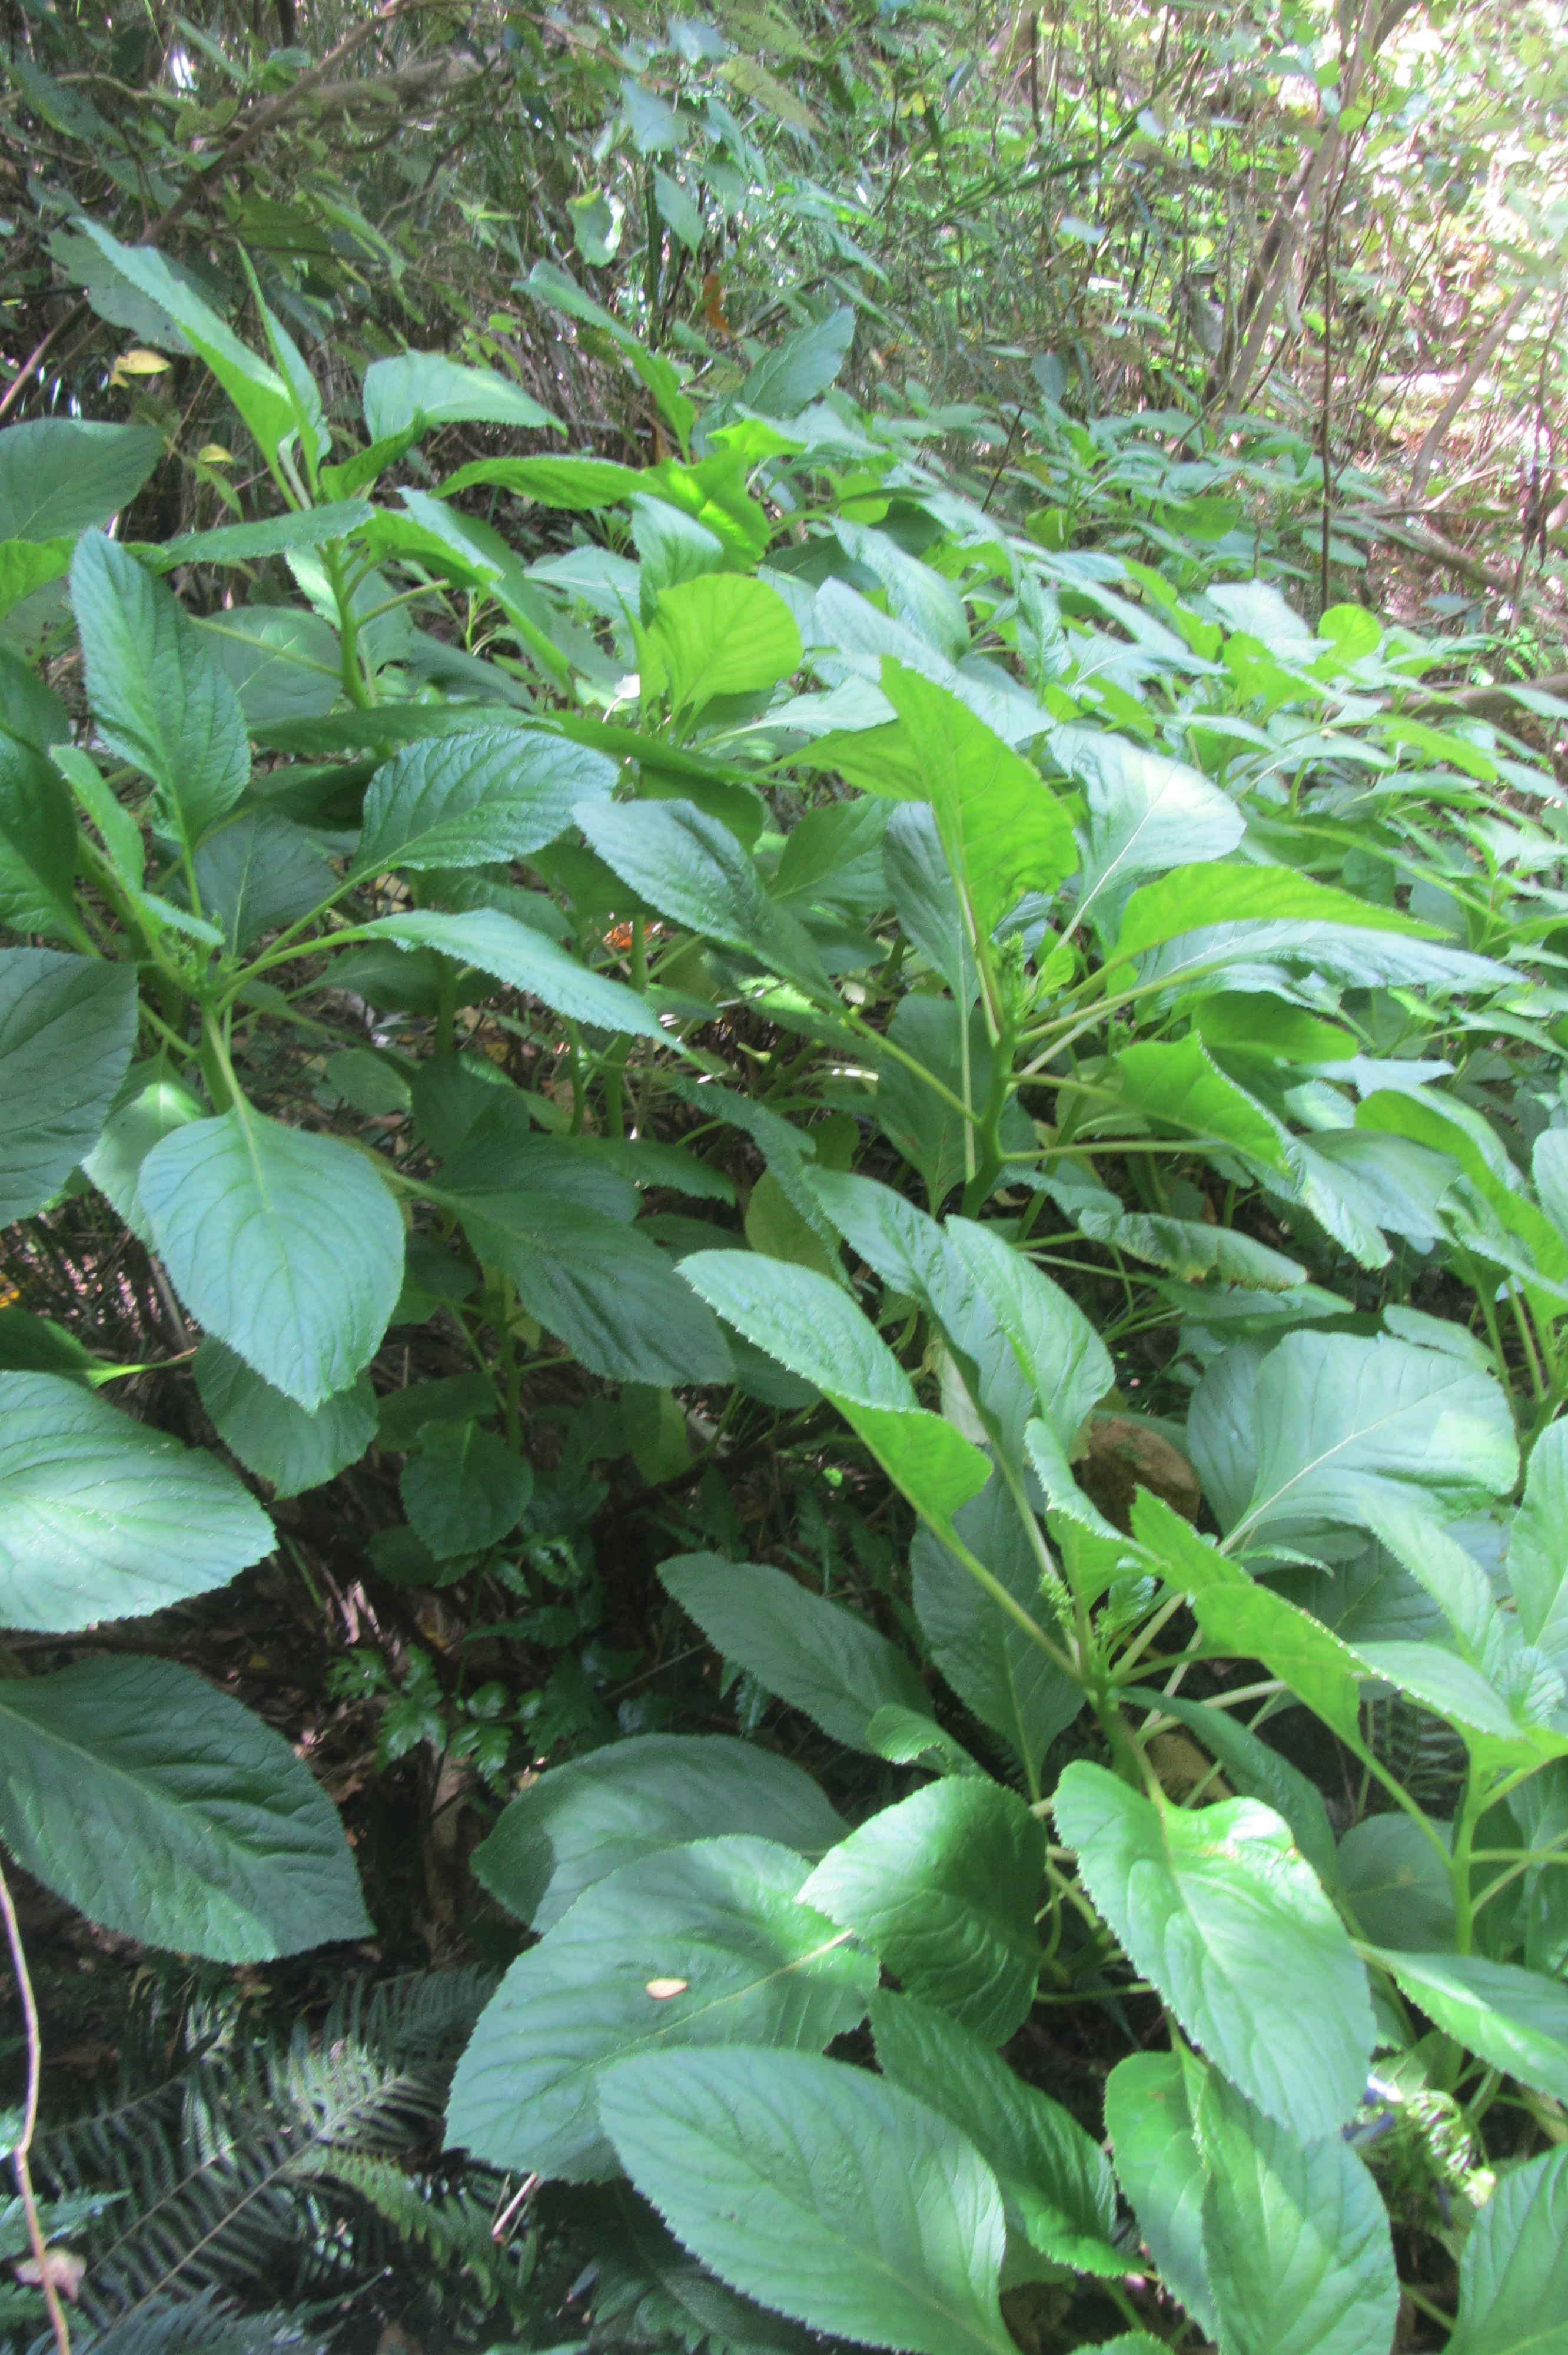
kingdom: Plantae
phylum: Tracheophyta
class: Magnoliopsida
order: Asterales
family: Campanulaceae
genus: Lobelia
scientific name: Lobelia physaloides
